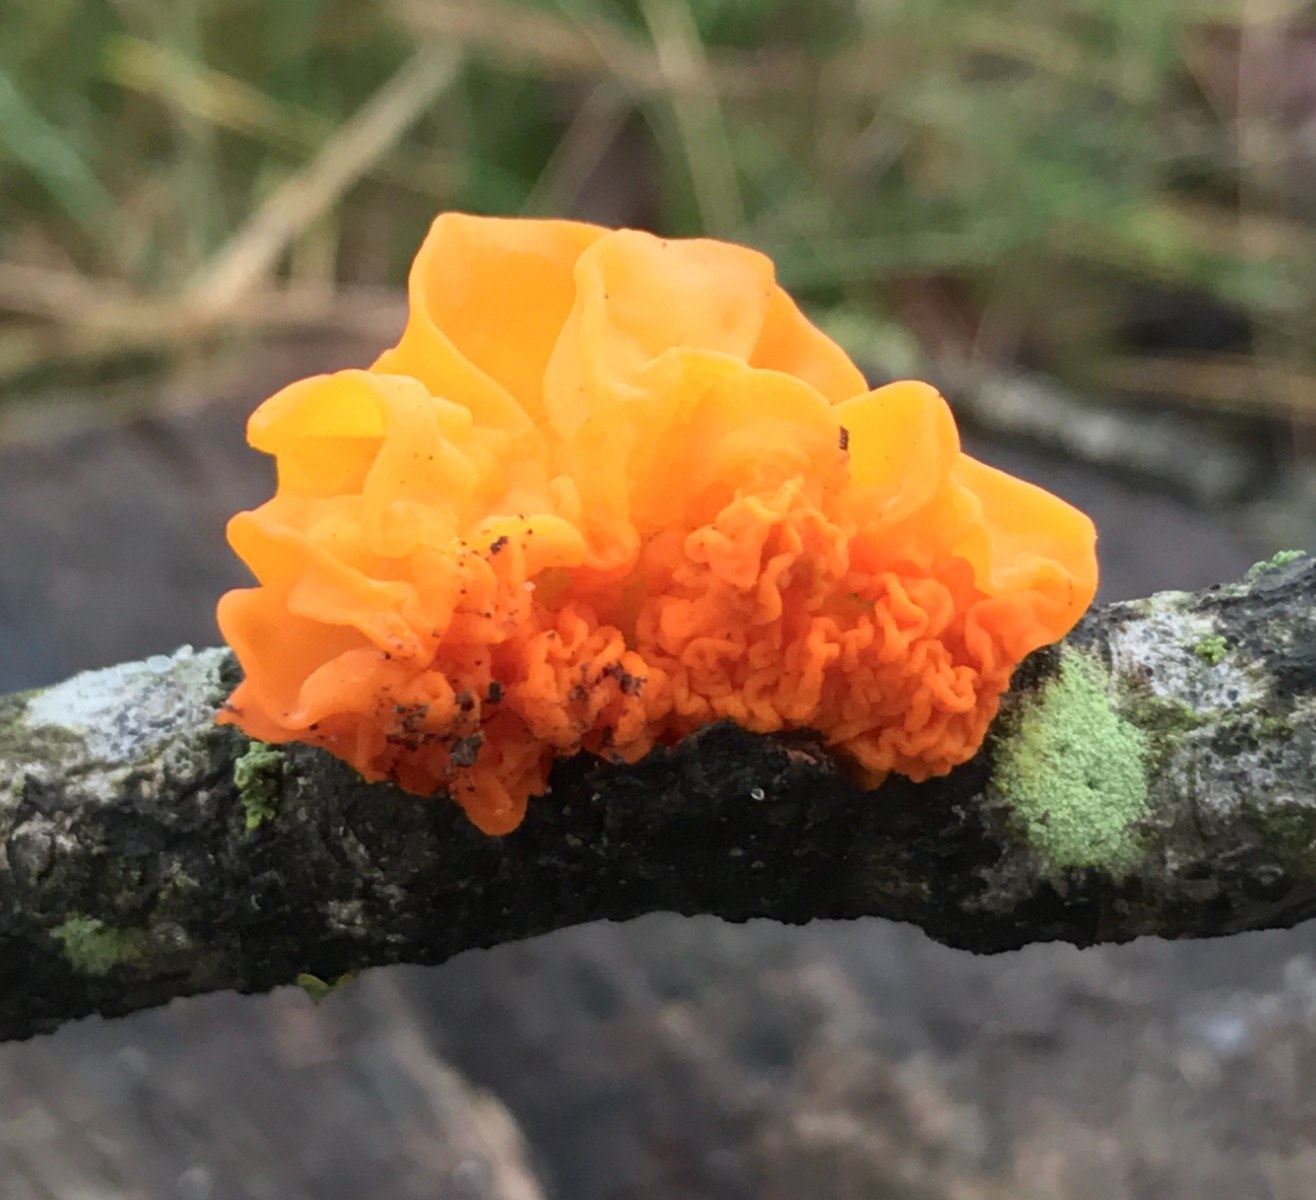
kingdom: Fungi
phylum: Basidiomycota
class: Tremellomycetes
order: Tremellales
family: Tremellaceae
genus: Tremella
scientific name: Tremella mesenterica
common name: gul bævresvamp
